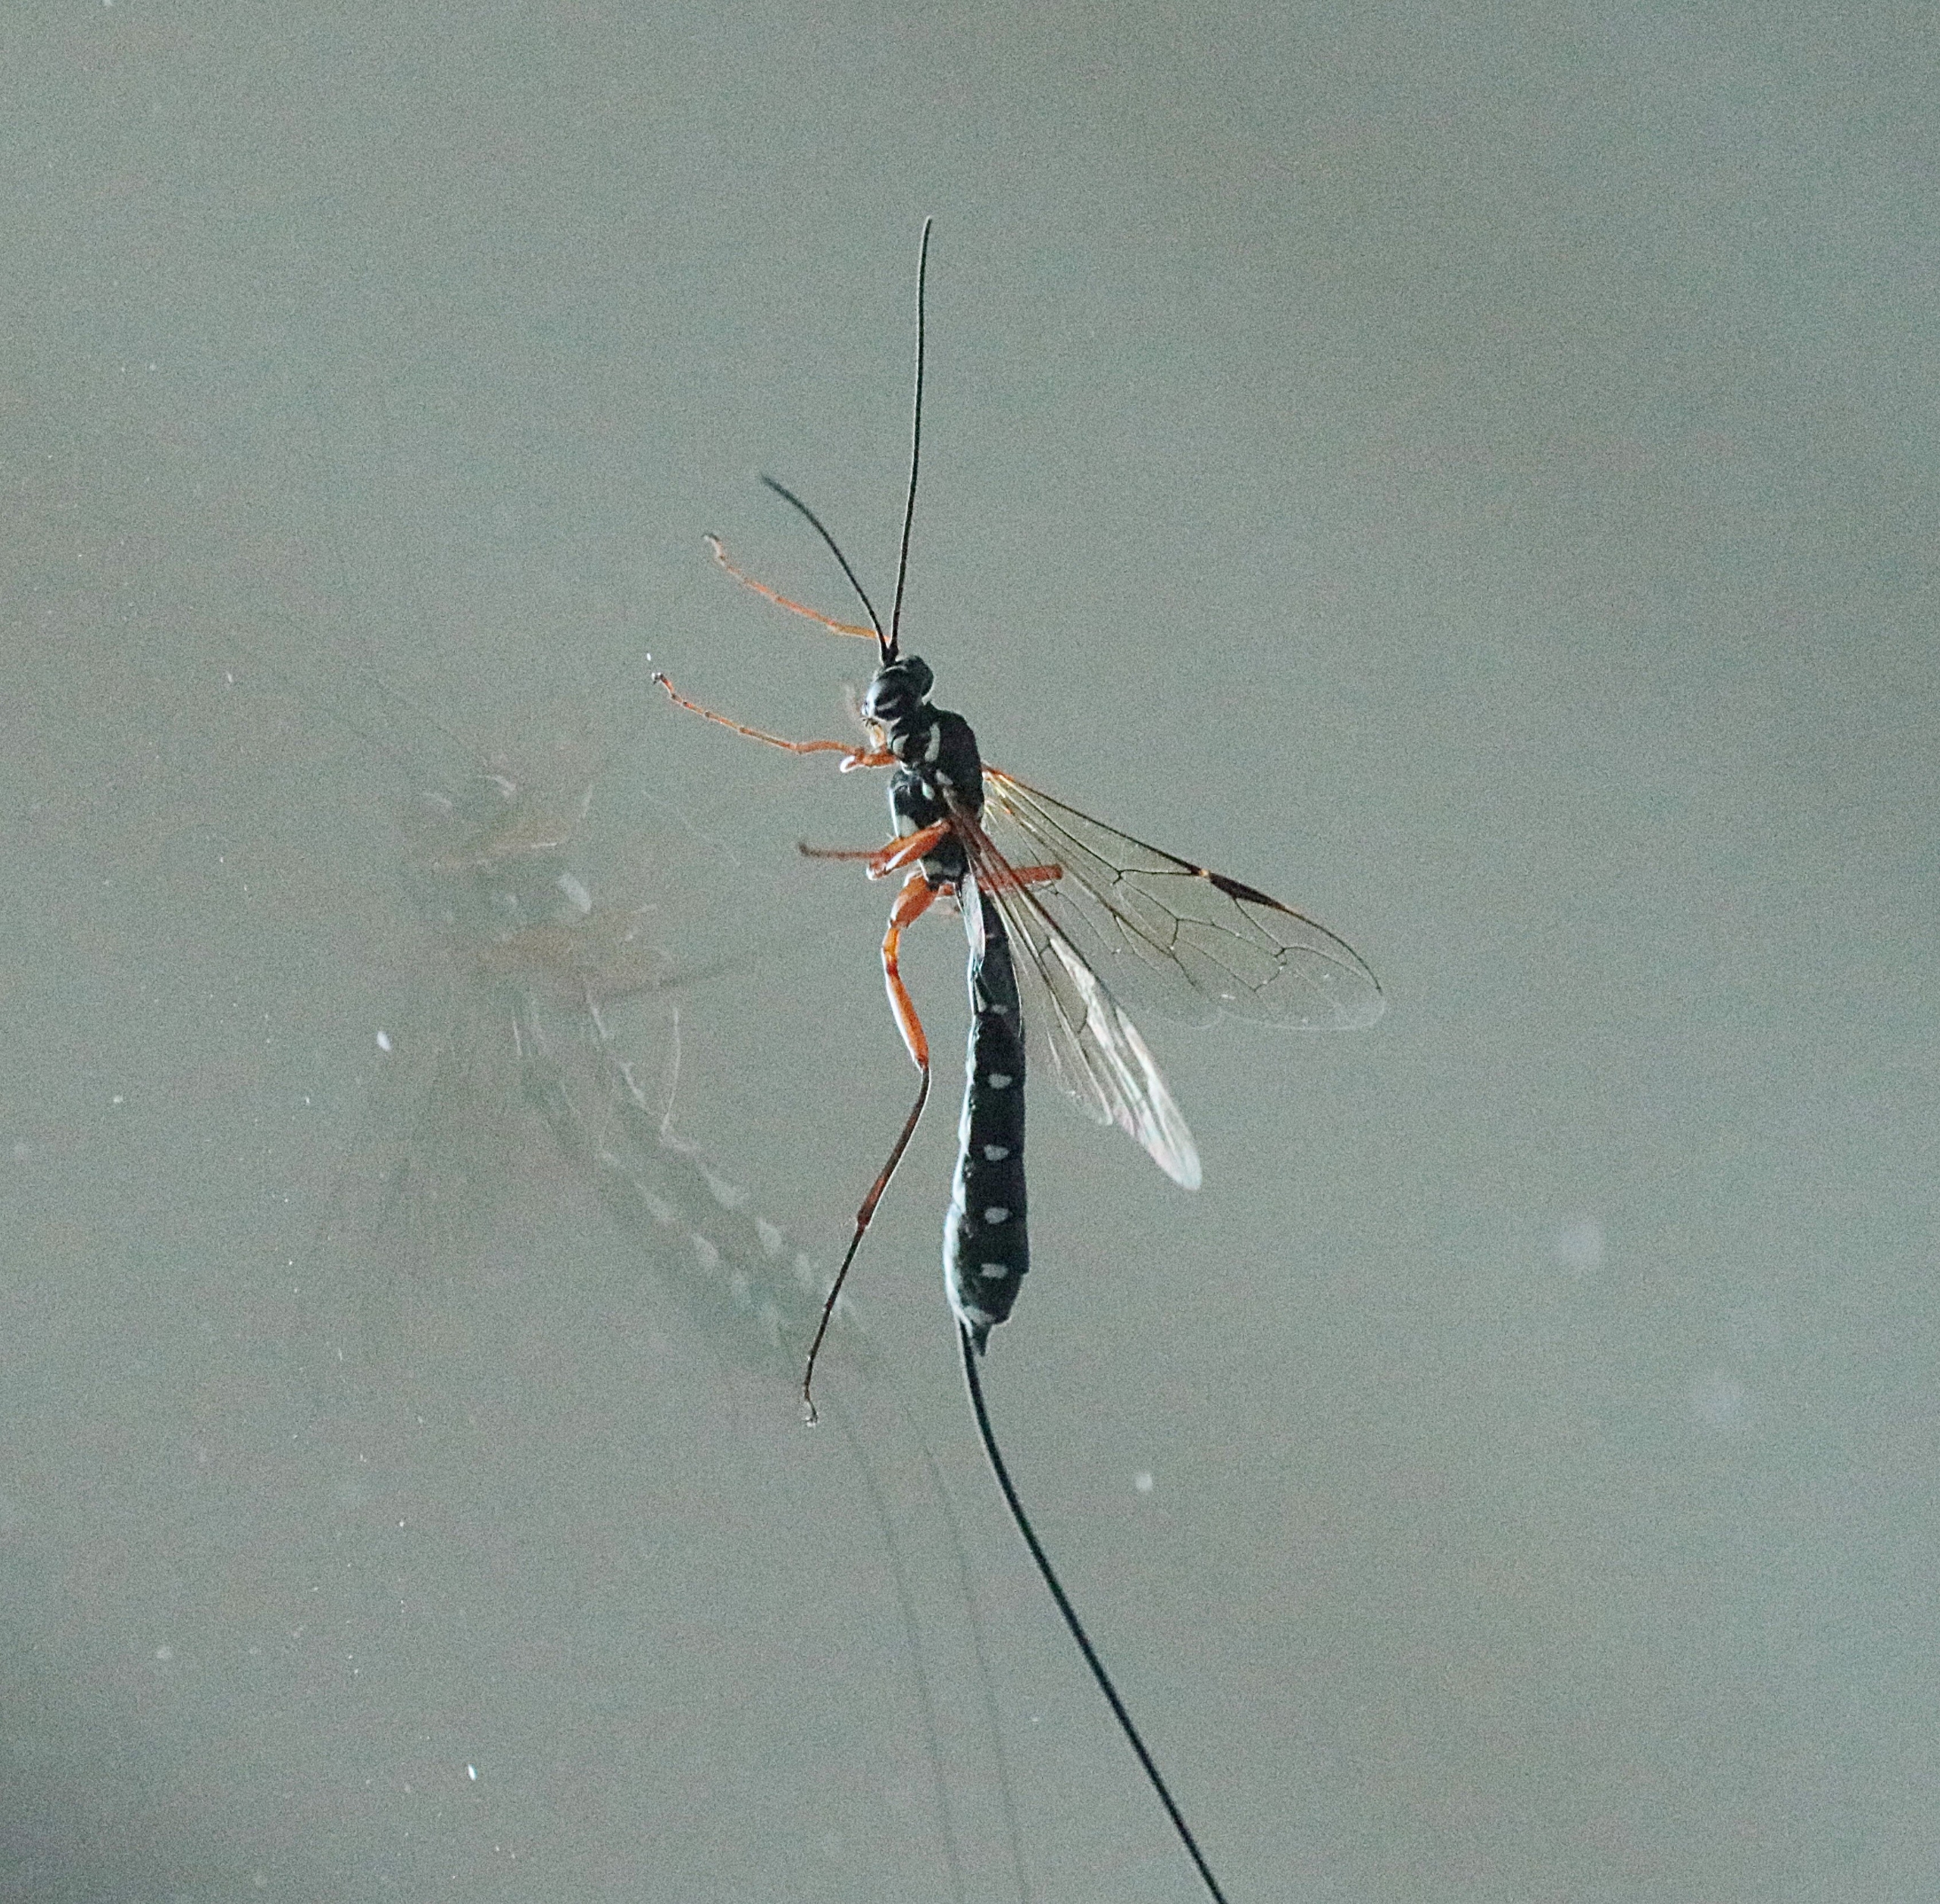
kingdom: Animalia
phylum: Arthropoda
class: Insecta
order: Hymenoptera
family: Ichneumonidae
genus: Rhyssa
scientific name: Rhyssa persuasoria
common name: Sabelhveps
